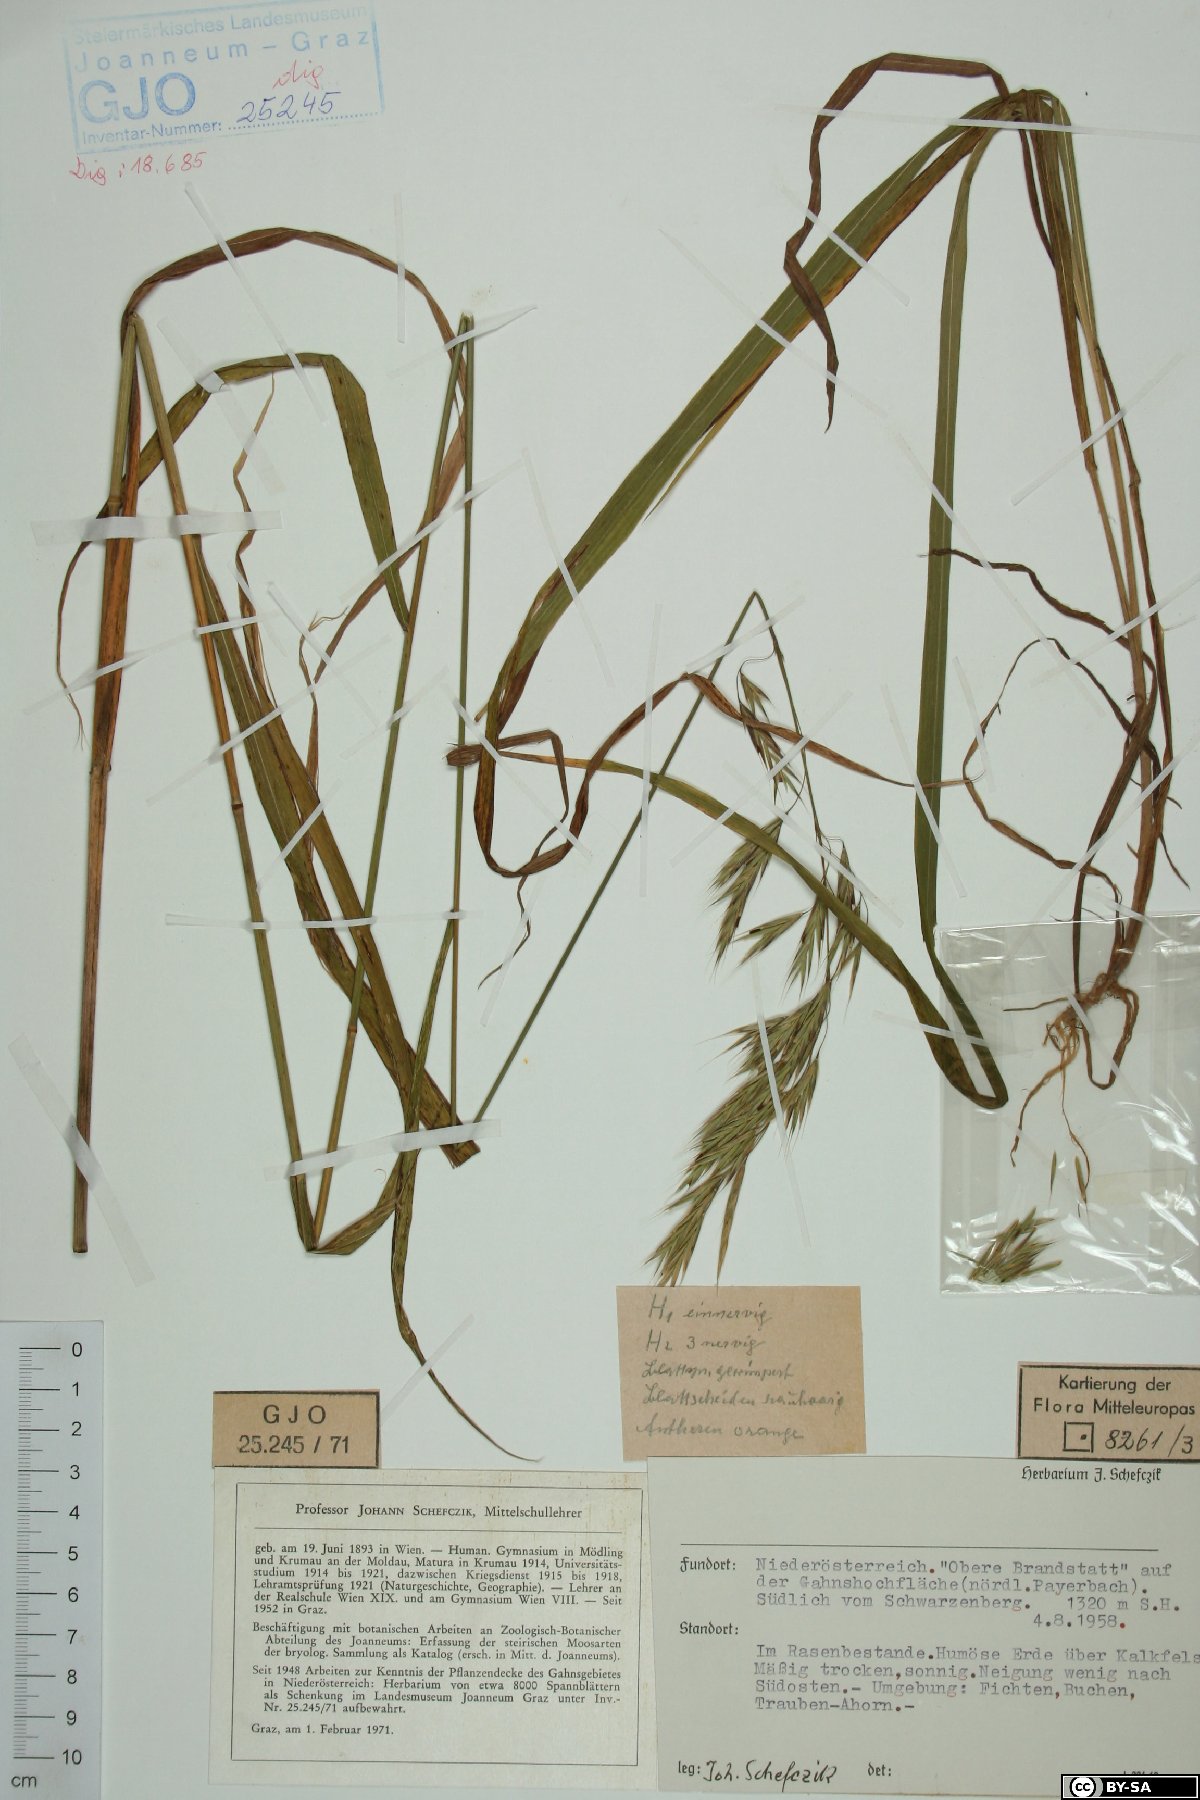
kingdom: Plantae
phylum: Tracheophyta
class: Liliopsida
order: Poales
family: Poaceae
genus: Bromus
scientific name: Bromus ramosus
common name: Hairy brome
